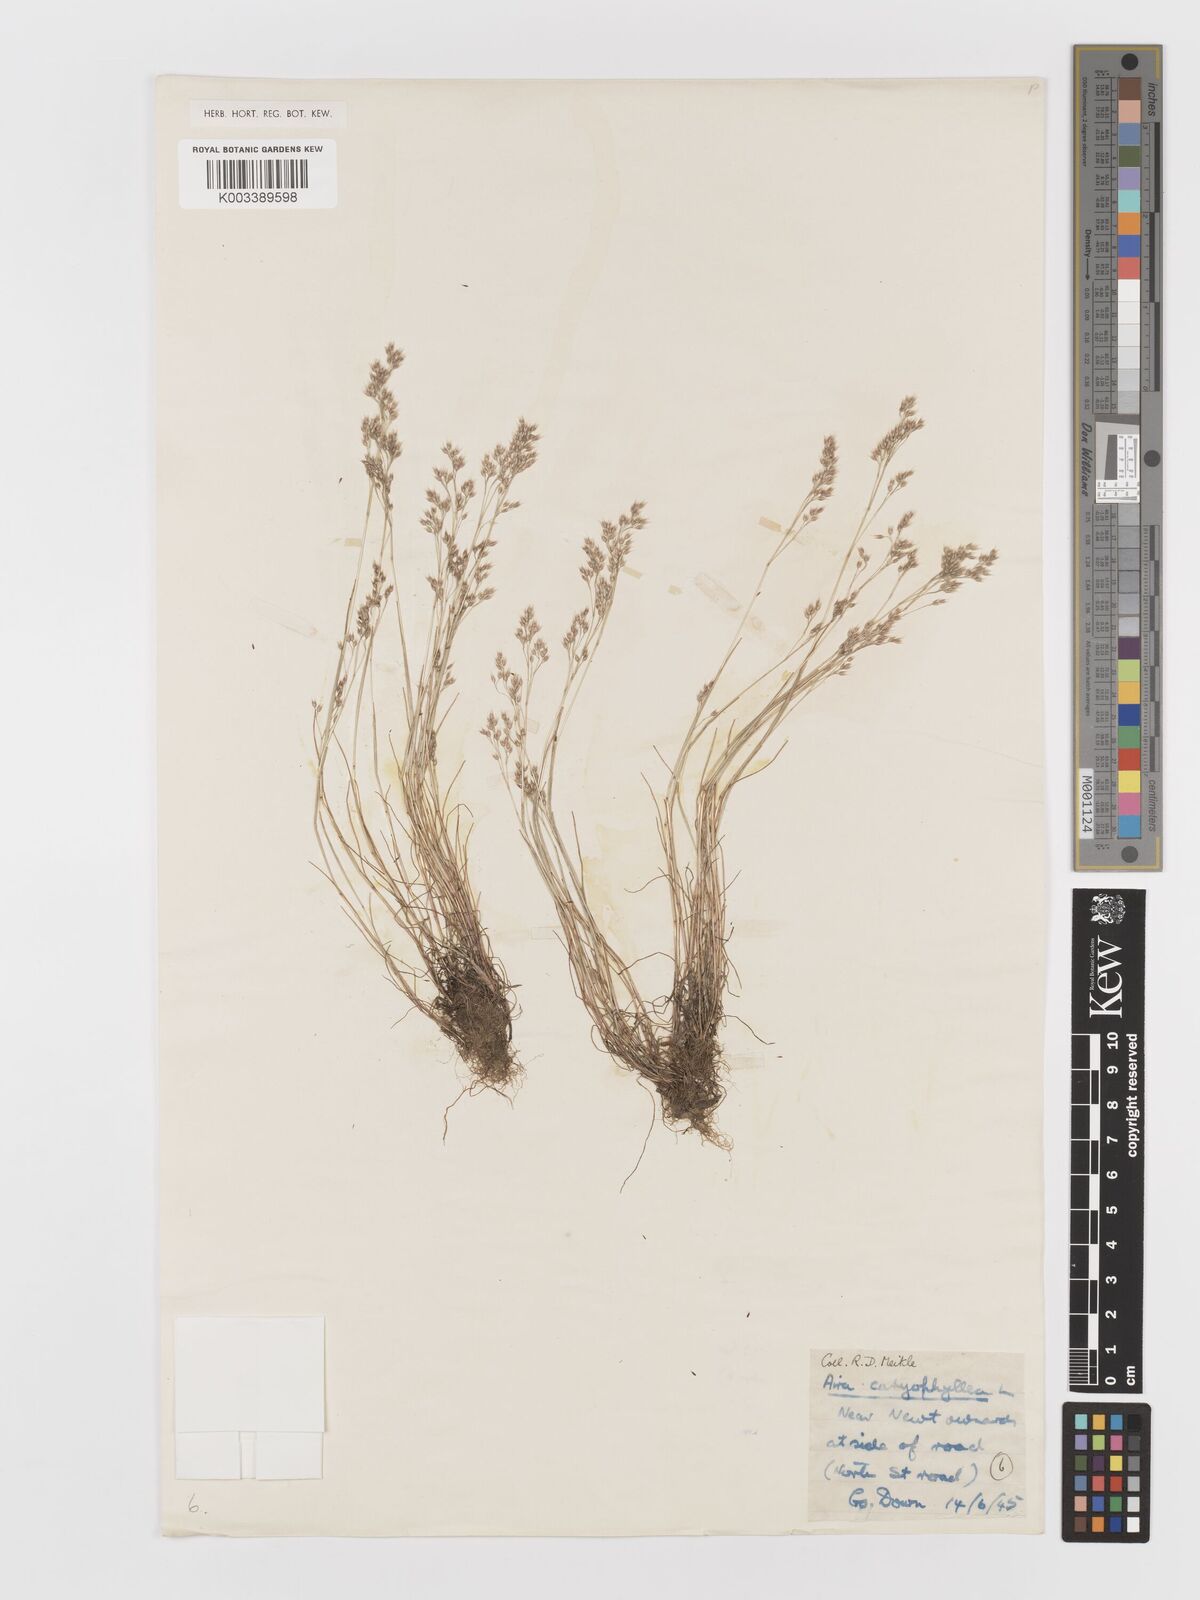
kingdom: Plantae
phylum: Tracheophyta
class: Liliopsida
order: Poales
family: Poaceae
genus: Aira
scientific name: Aira caryophyllea
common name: Silver hairgrass
